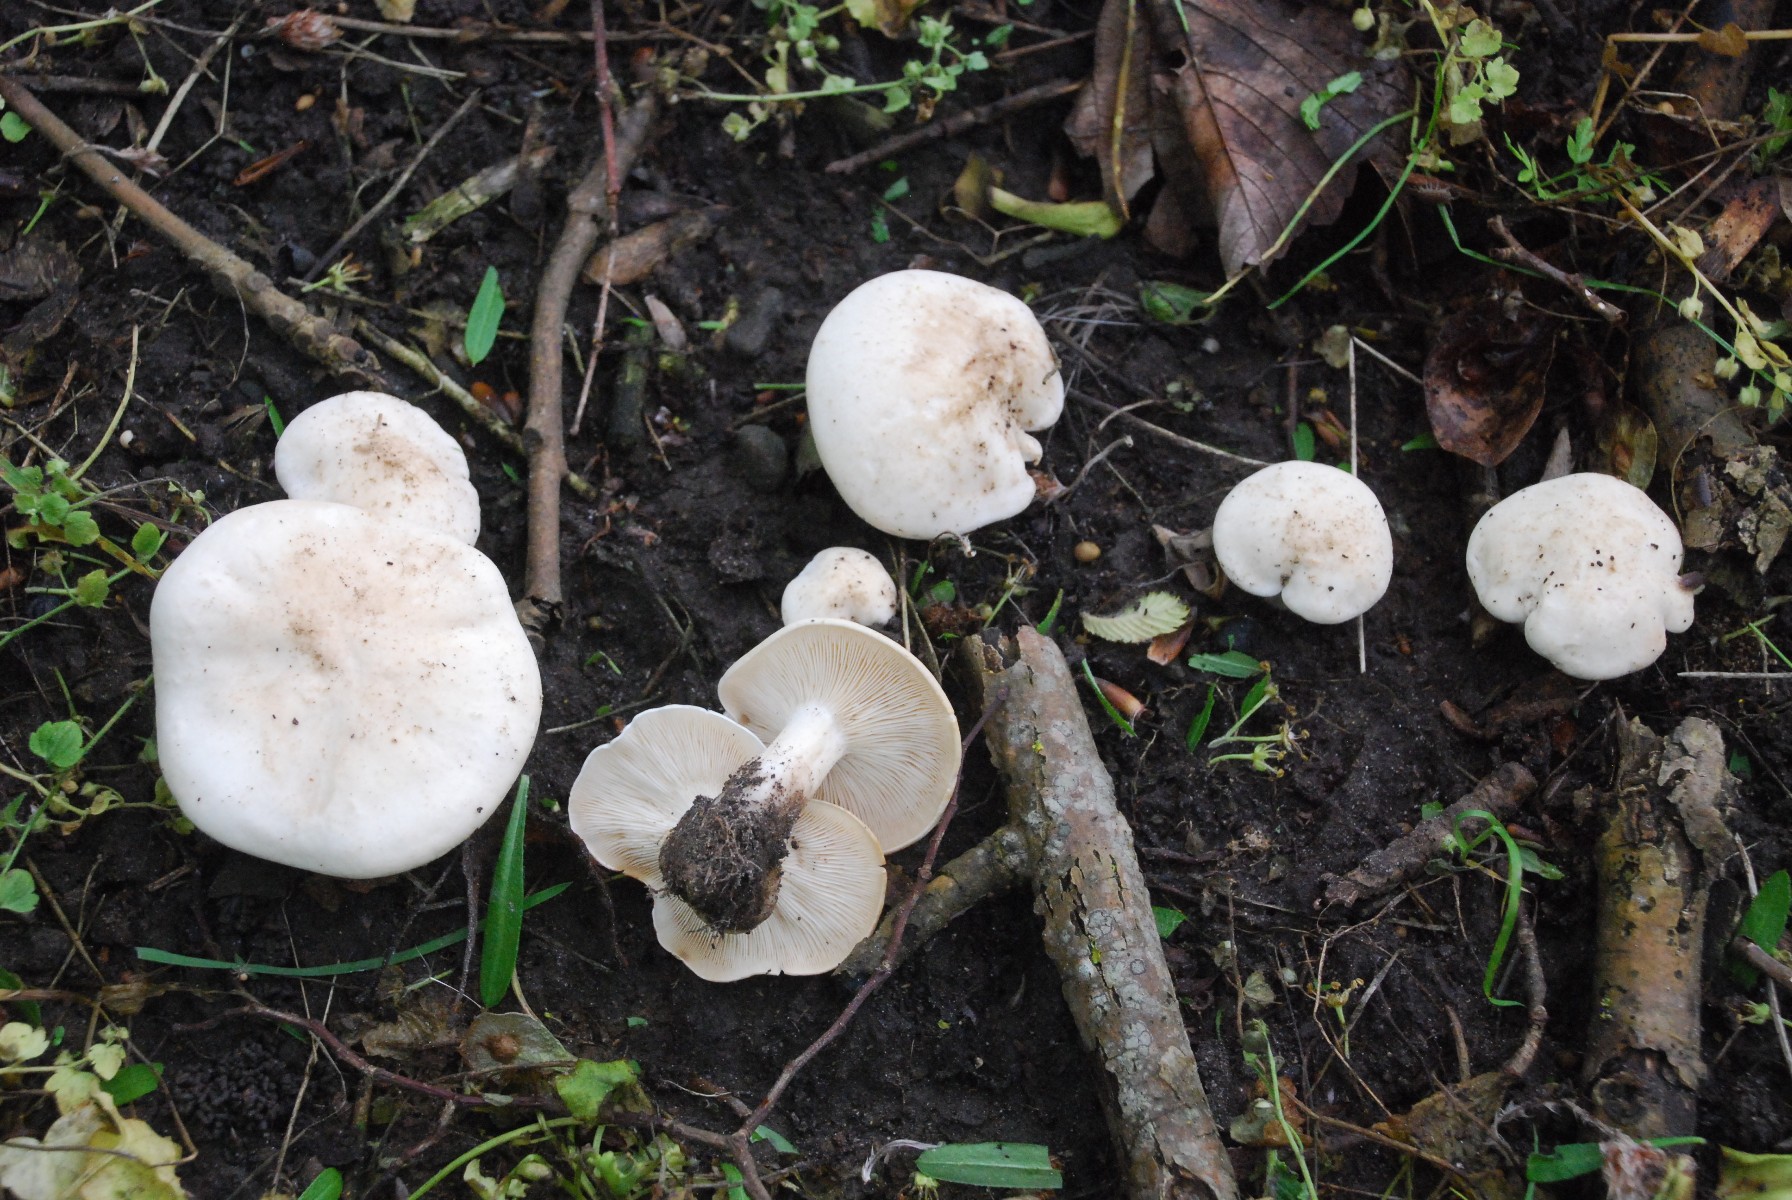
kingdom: Fungi
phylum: Basidiomycota
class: Agaricomycetes
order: Agaricales
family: Lyophyllaceae
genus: Calocybe
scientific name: Calocybe gambosa
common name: vårmusseron
